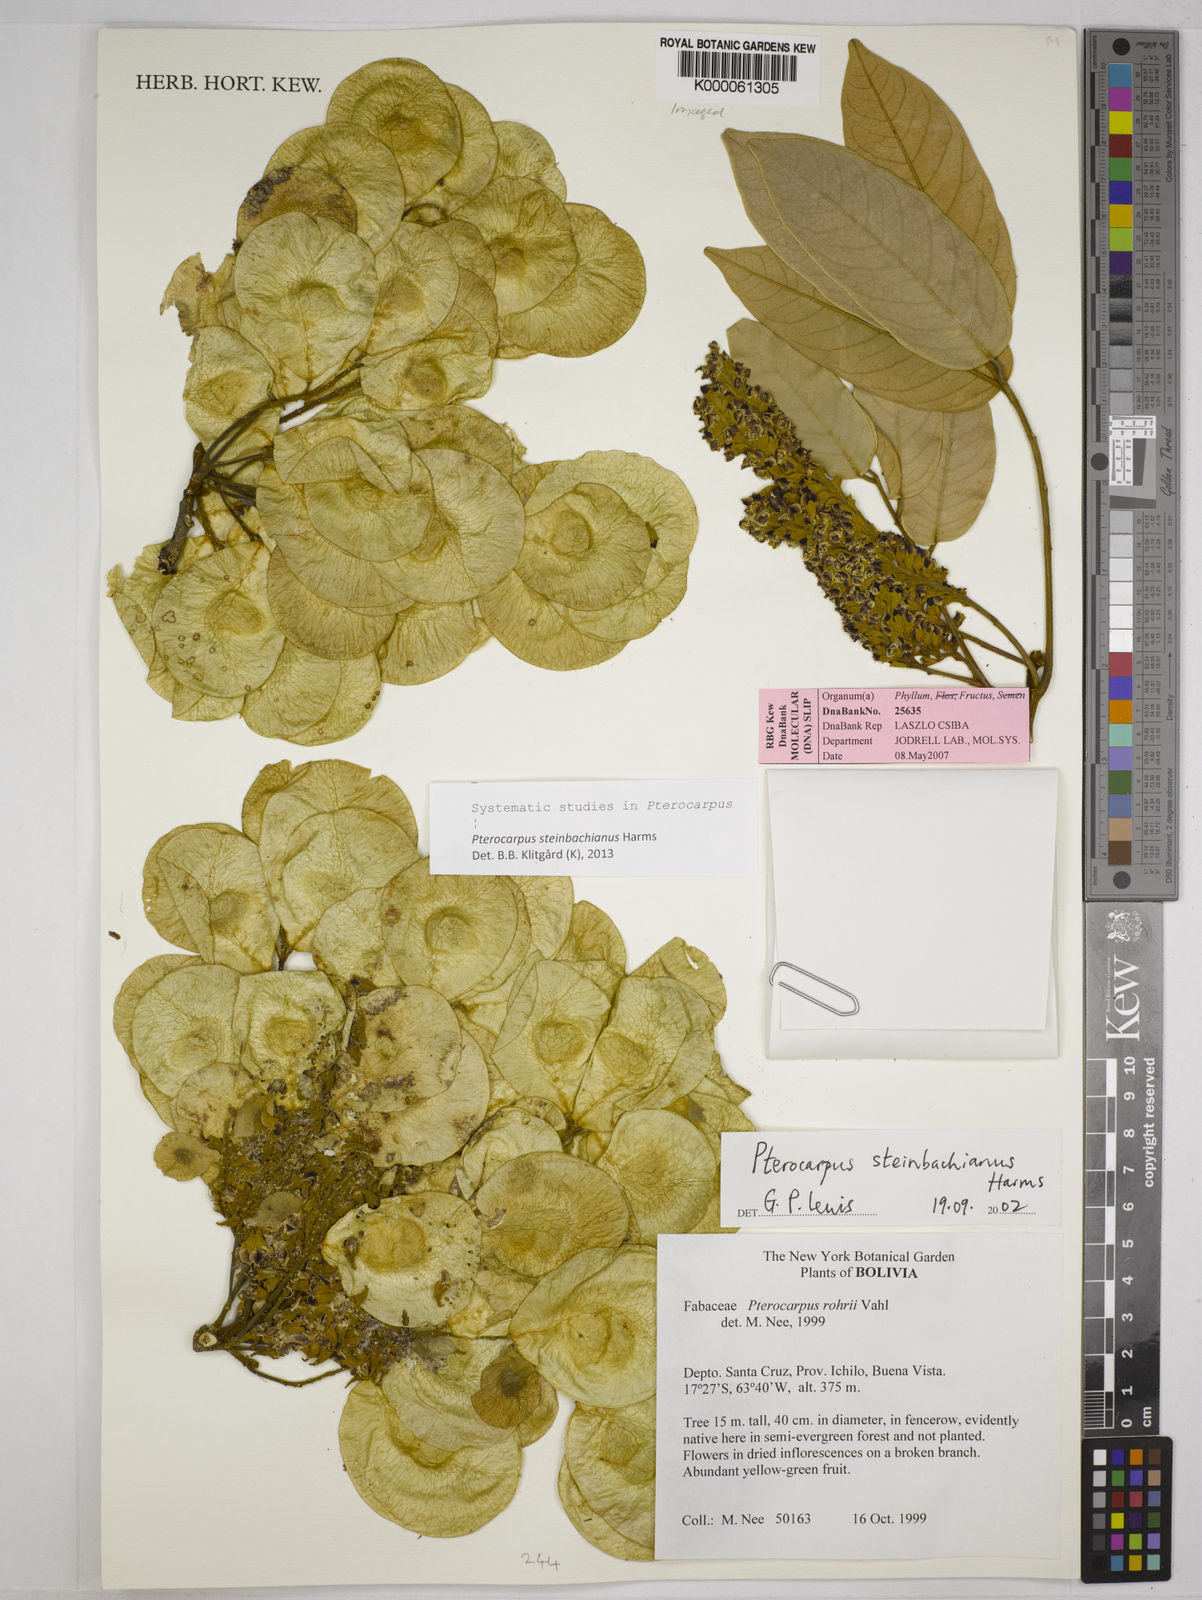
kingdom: Plantae
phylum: Tracheophyta
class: Magnoliopsida
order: Fabales
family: Fabaceae
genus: Pterocarpus
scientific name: Pterocarpus steinbachianus
